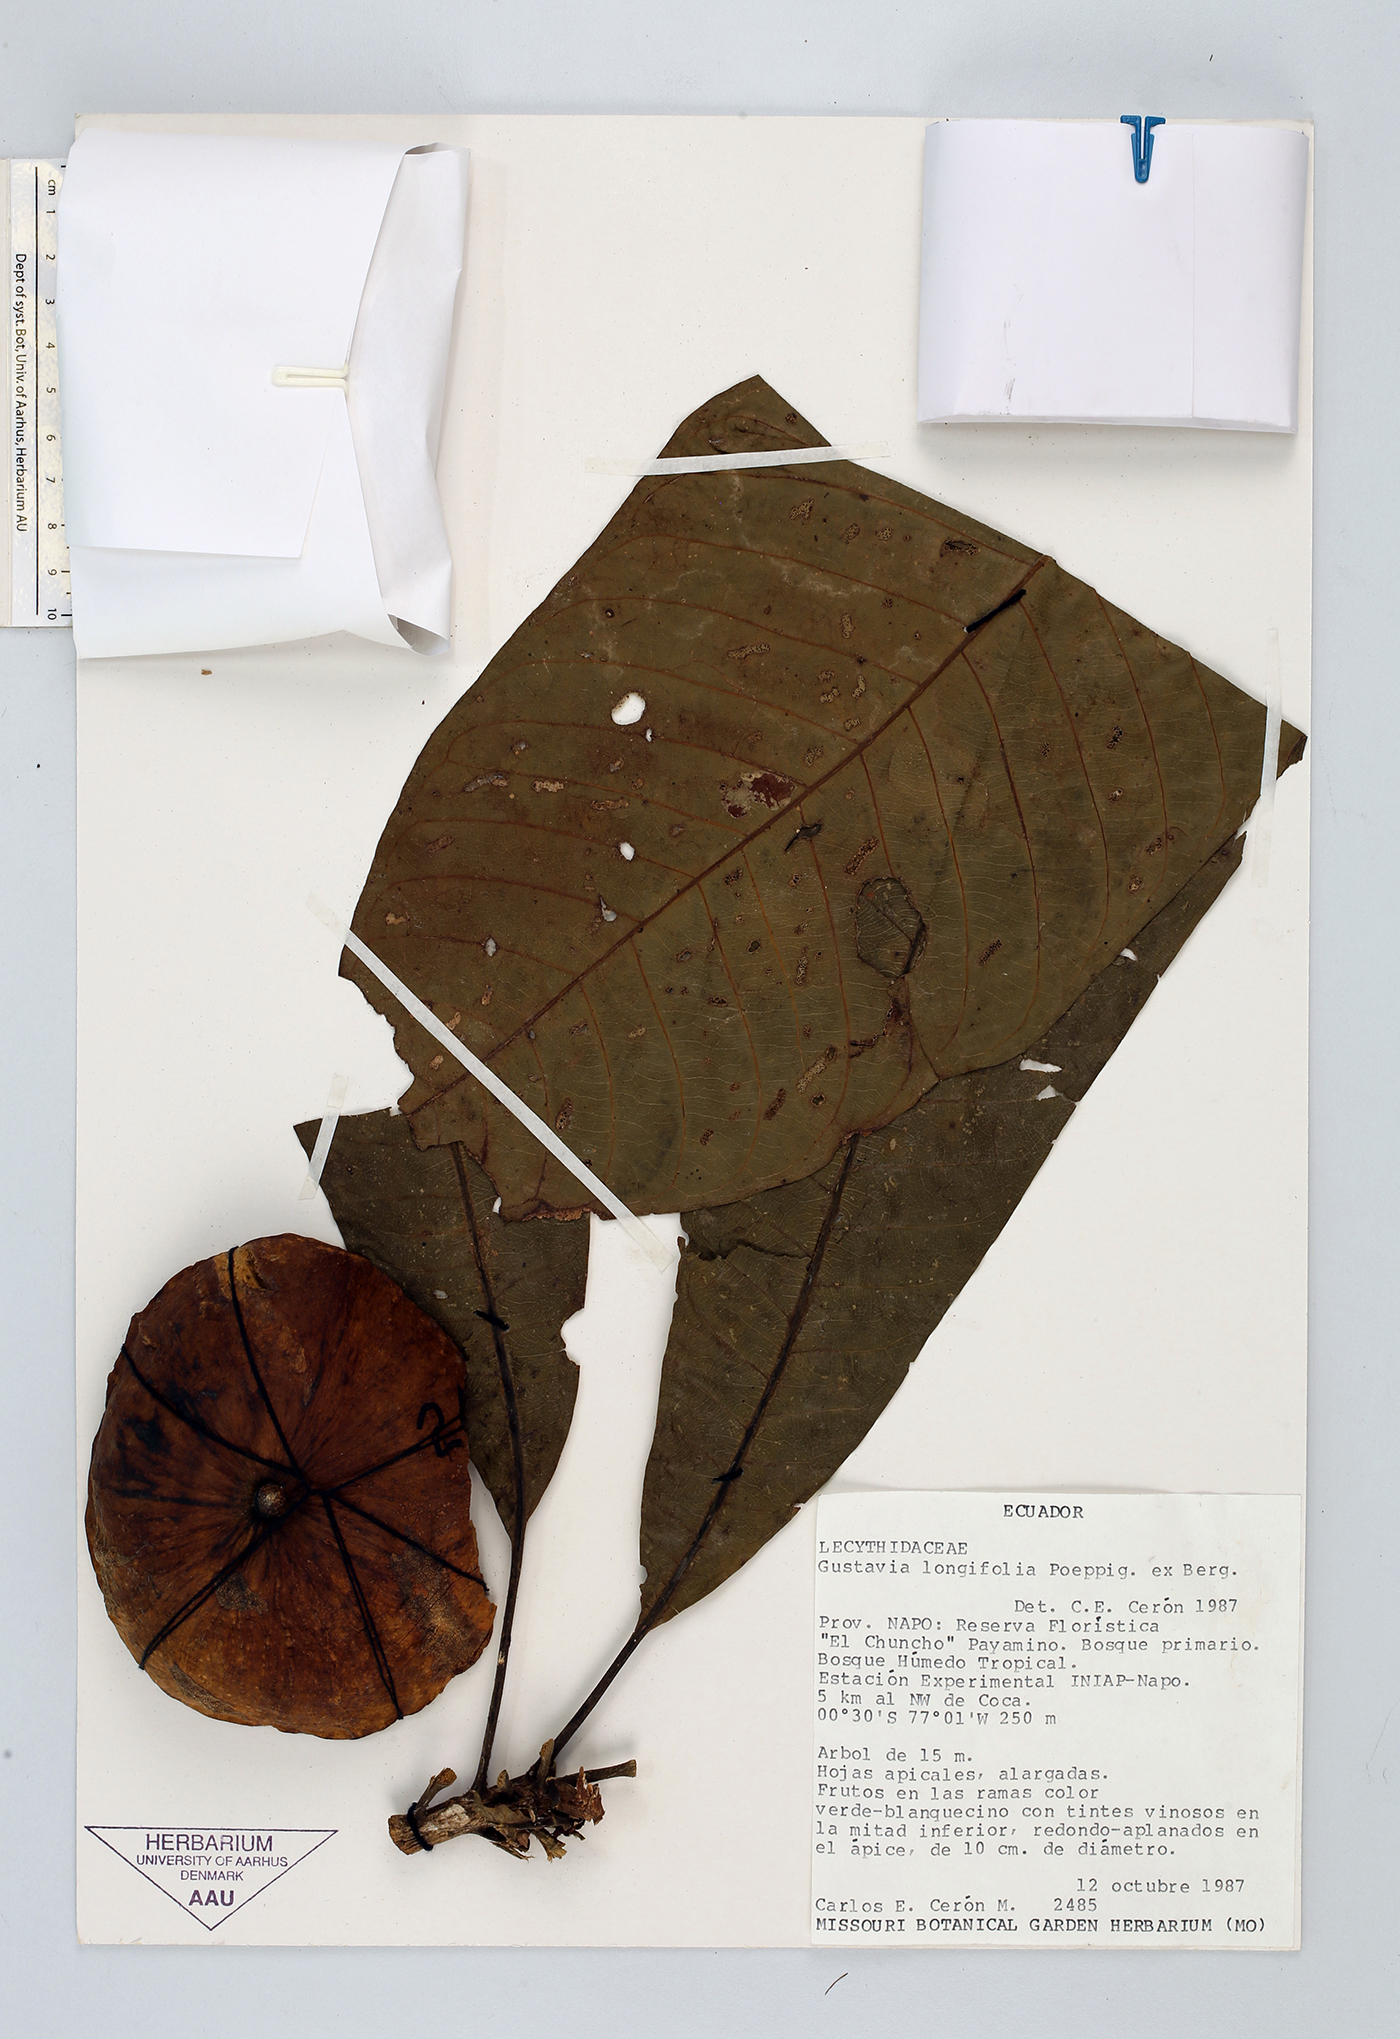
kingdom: Plantae
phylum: Tracheophyta
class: Magnoliopsida
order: Ericales
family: Lecythidaceae
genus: Gustavia
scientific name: Gustavia longifolia
